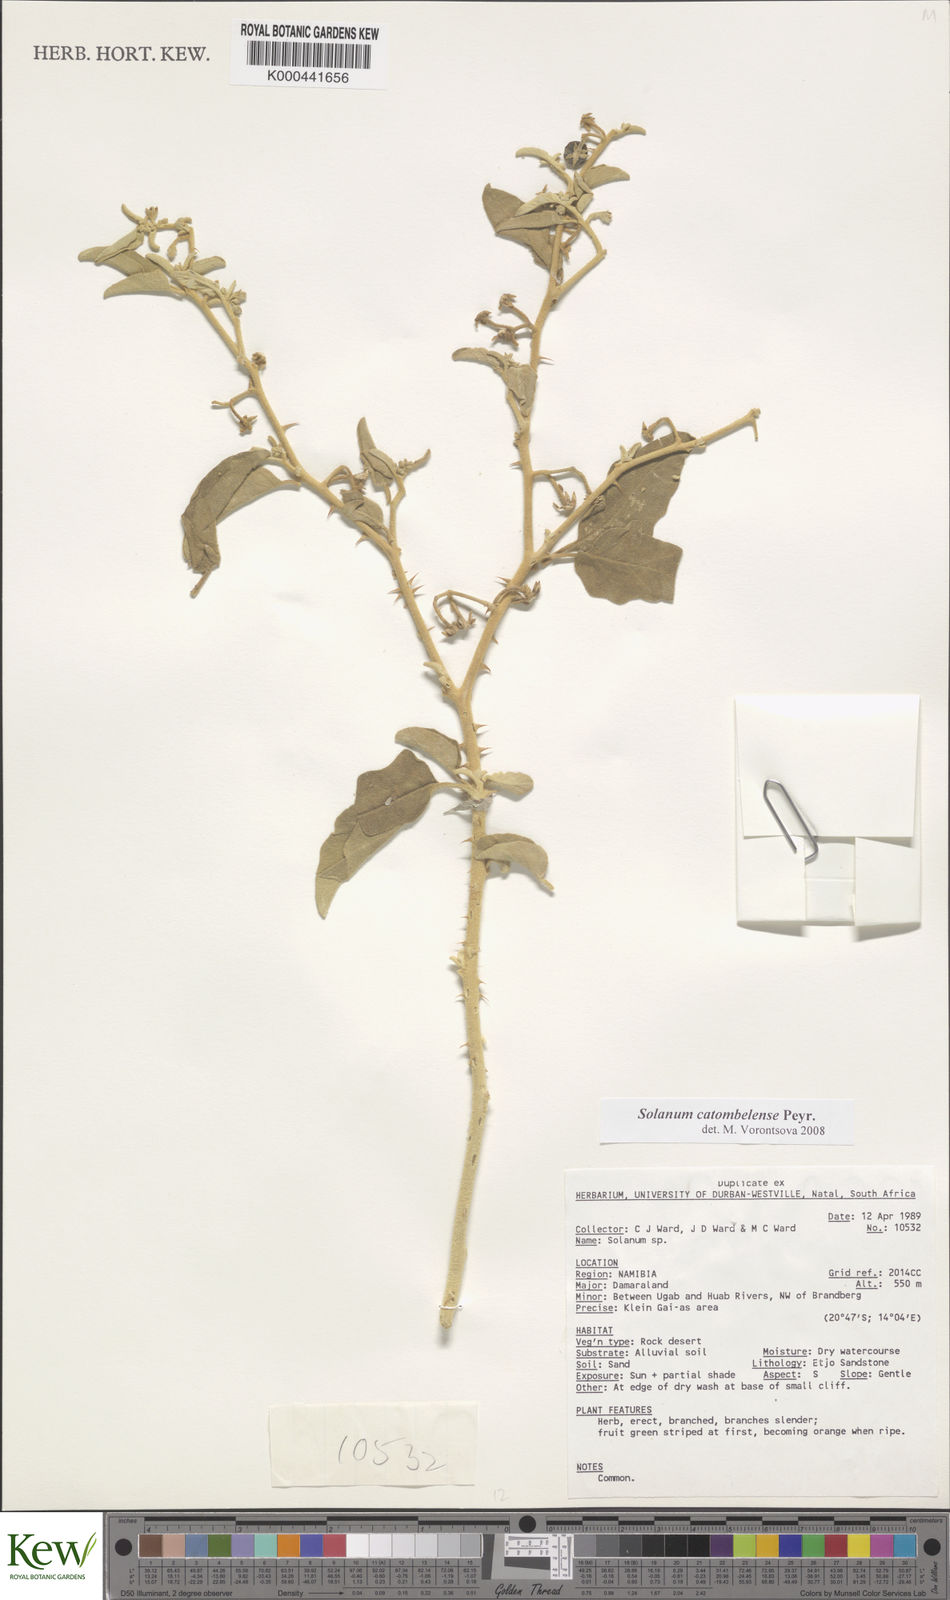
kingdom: Plantae
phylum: Tracheophyta
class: Magnoliopsida
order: Solanales
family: Solanaceae
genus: Solanum
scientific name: Solanum catombelense
